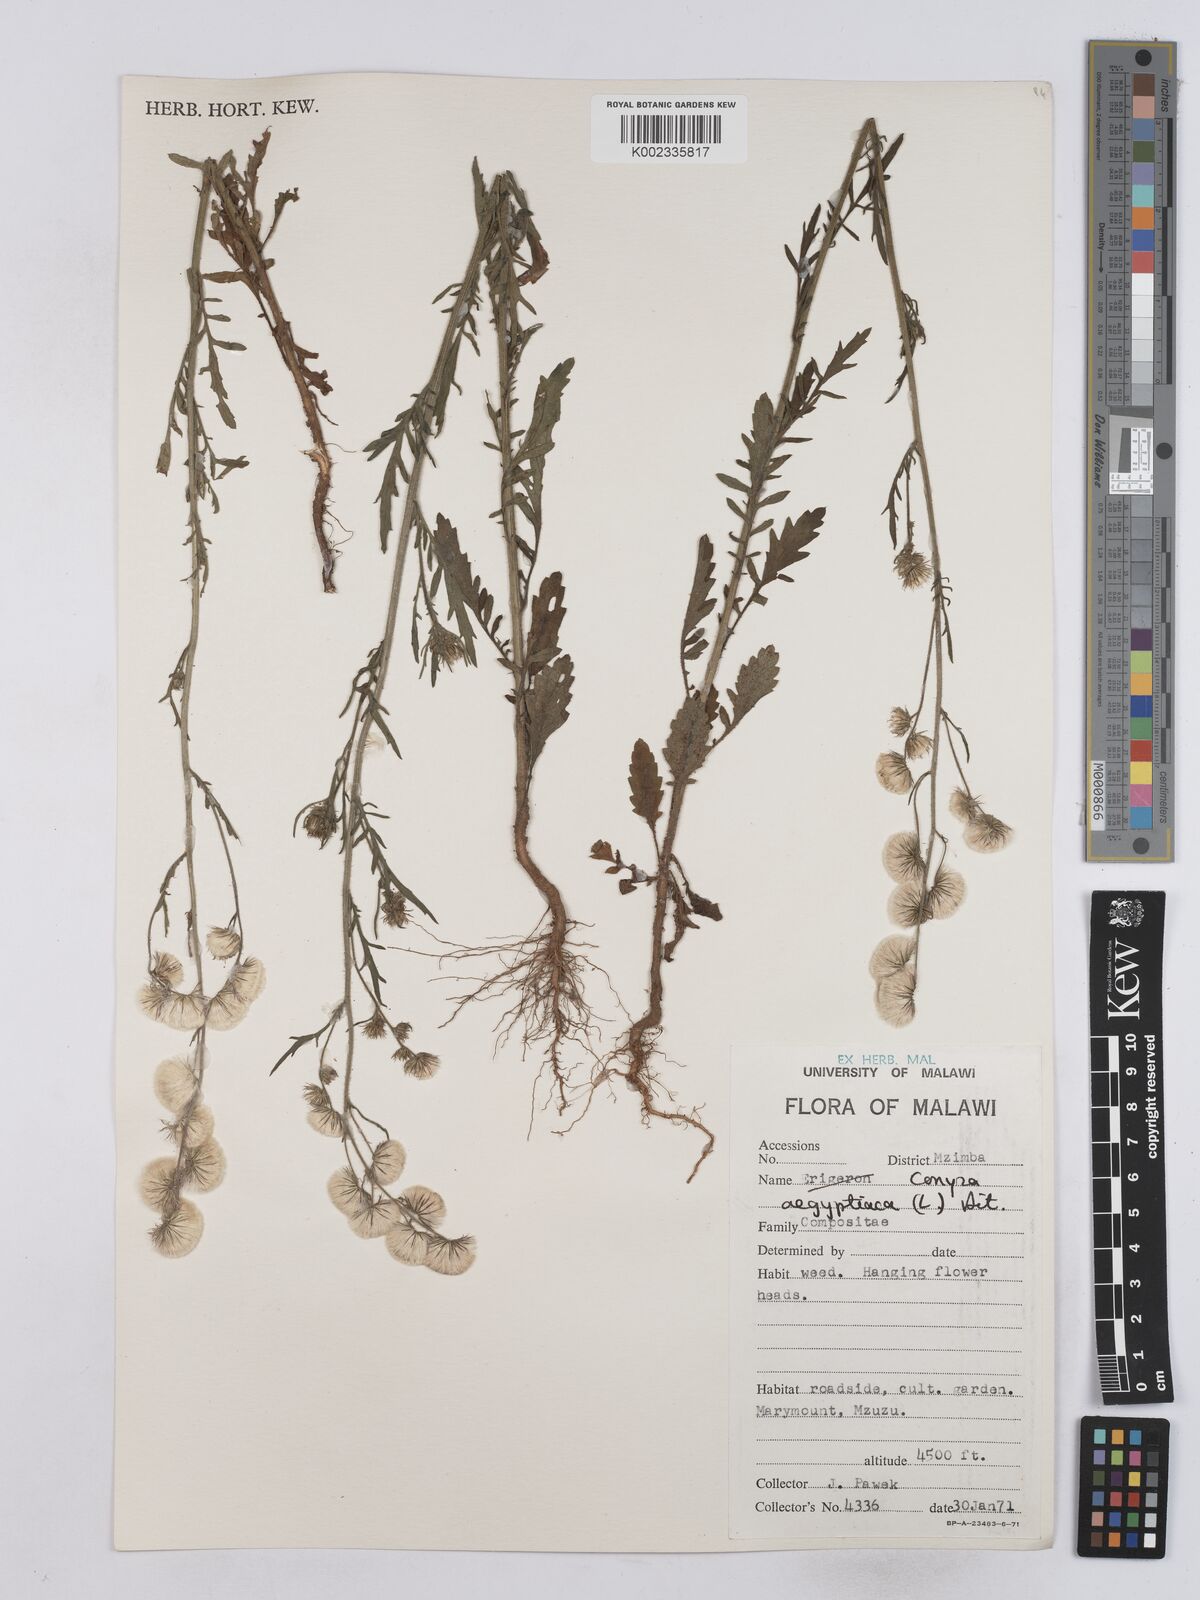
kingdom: Plantae
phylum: Tracheophyta
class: Magnoliopsida
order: Asterales
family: Asteraceae
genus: Nidorella
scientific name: Nidorella aegyptiaca
